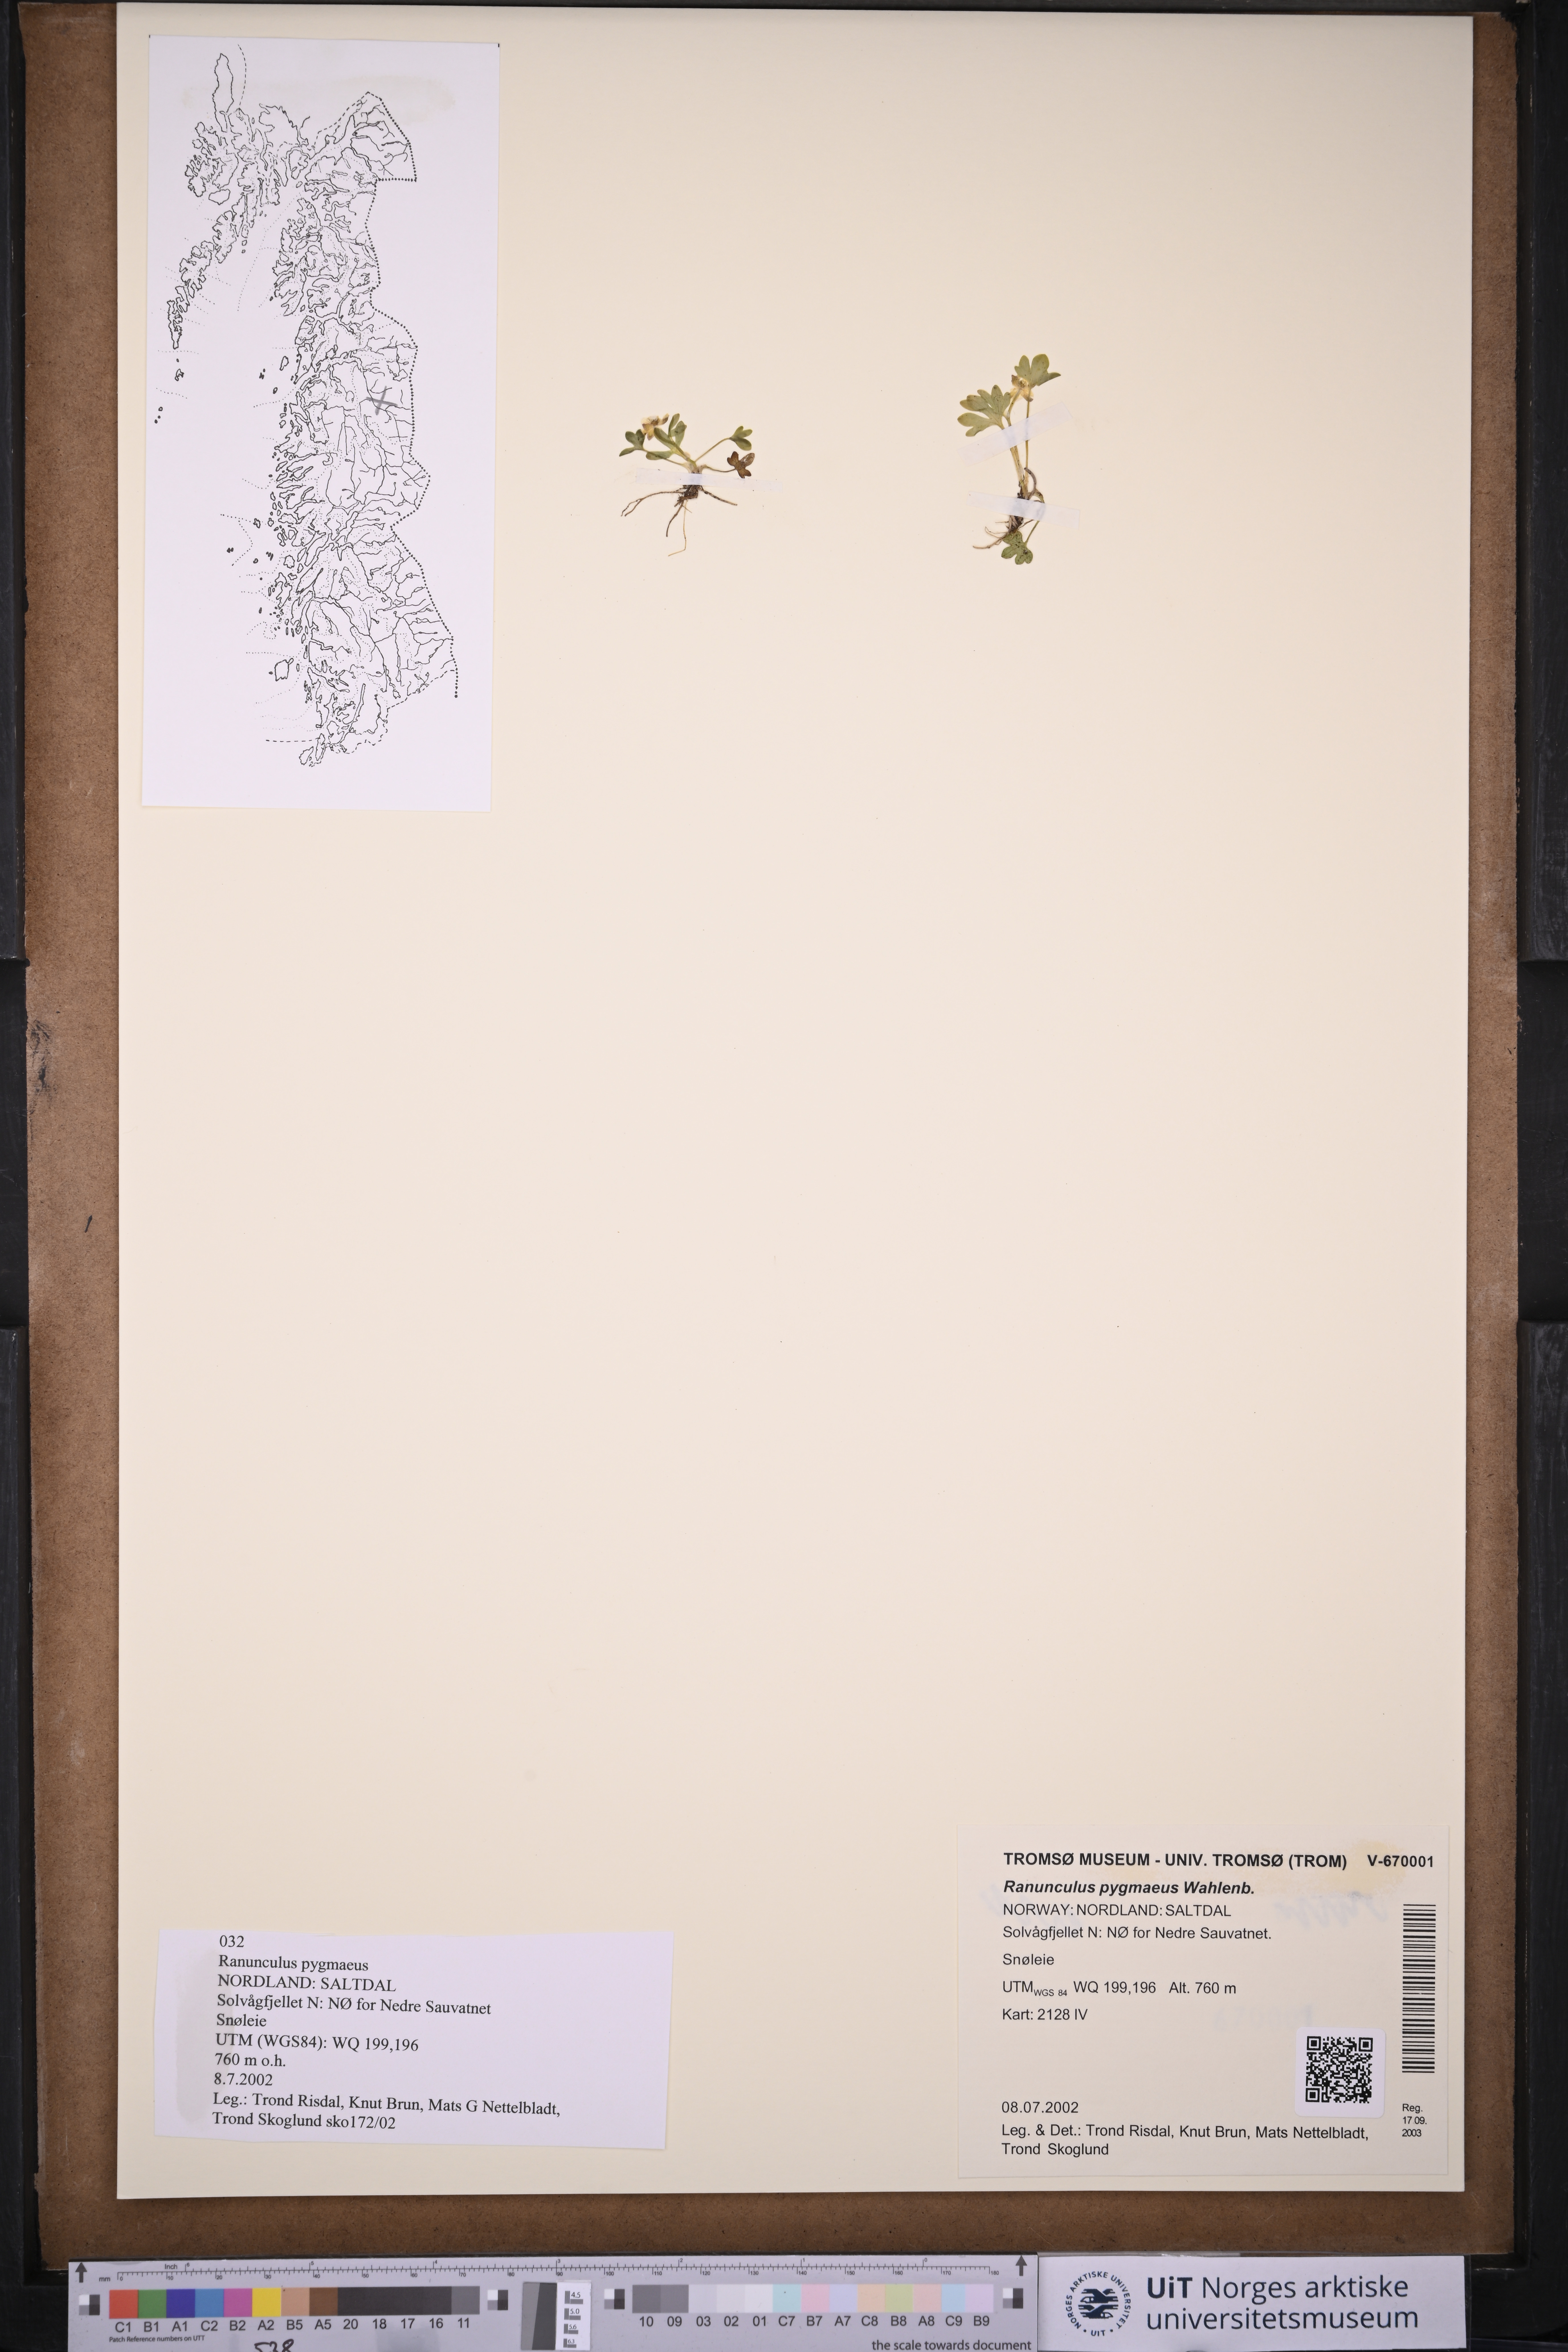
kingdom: Plantae
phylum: Tracheophyta
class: Magnoliopsida
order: Ranunculales
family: Ranunculaceae
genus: Ranunculus
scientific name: Ranunculus pygmaeus
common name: Dwarf buttercup
